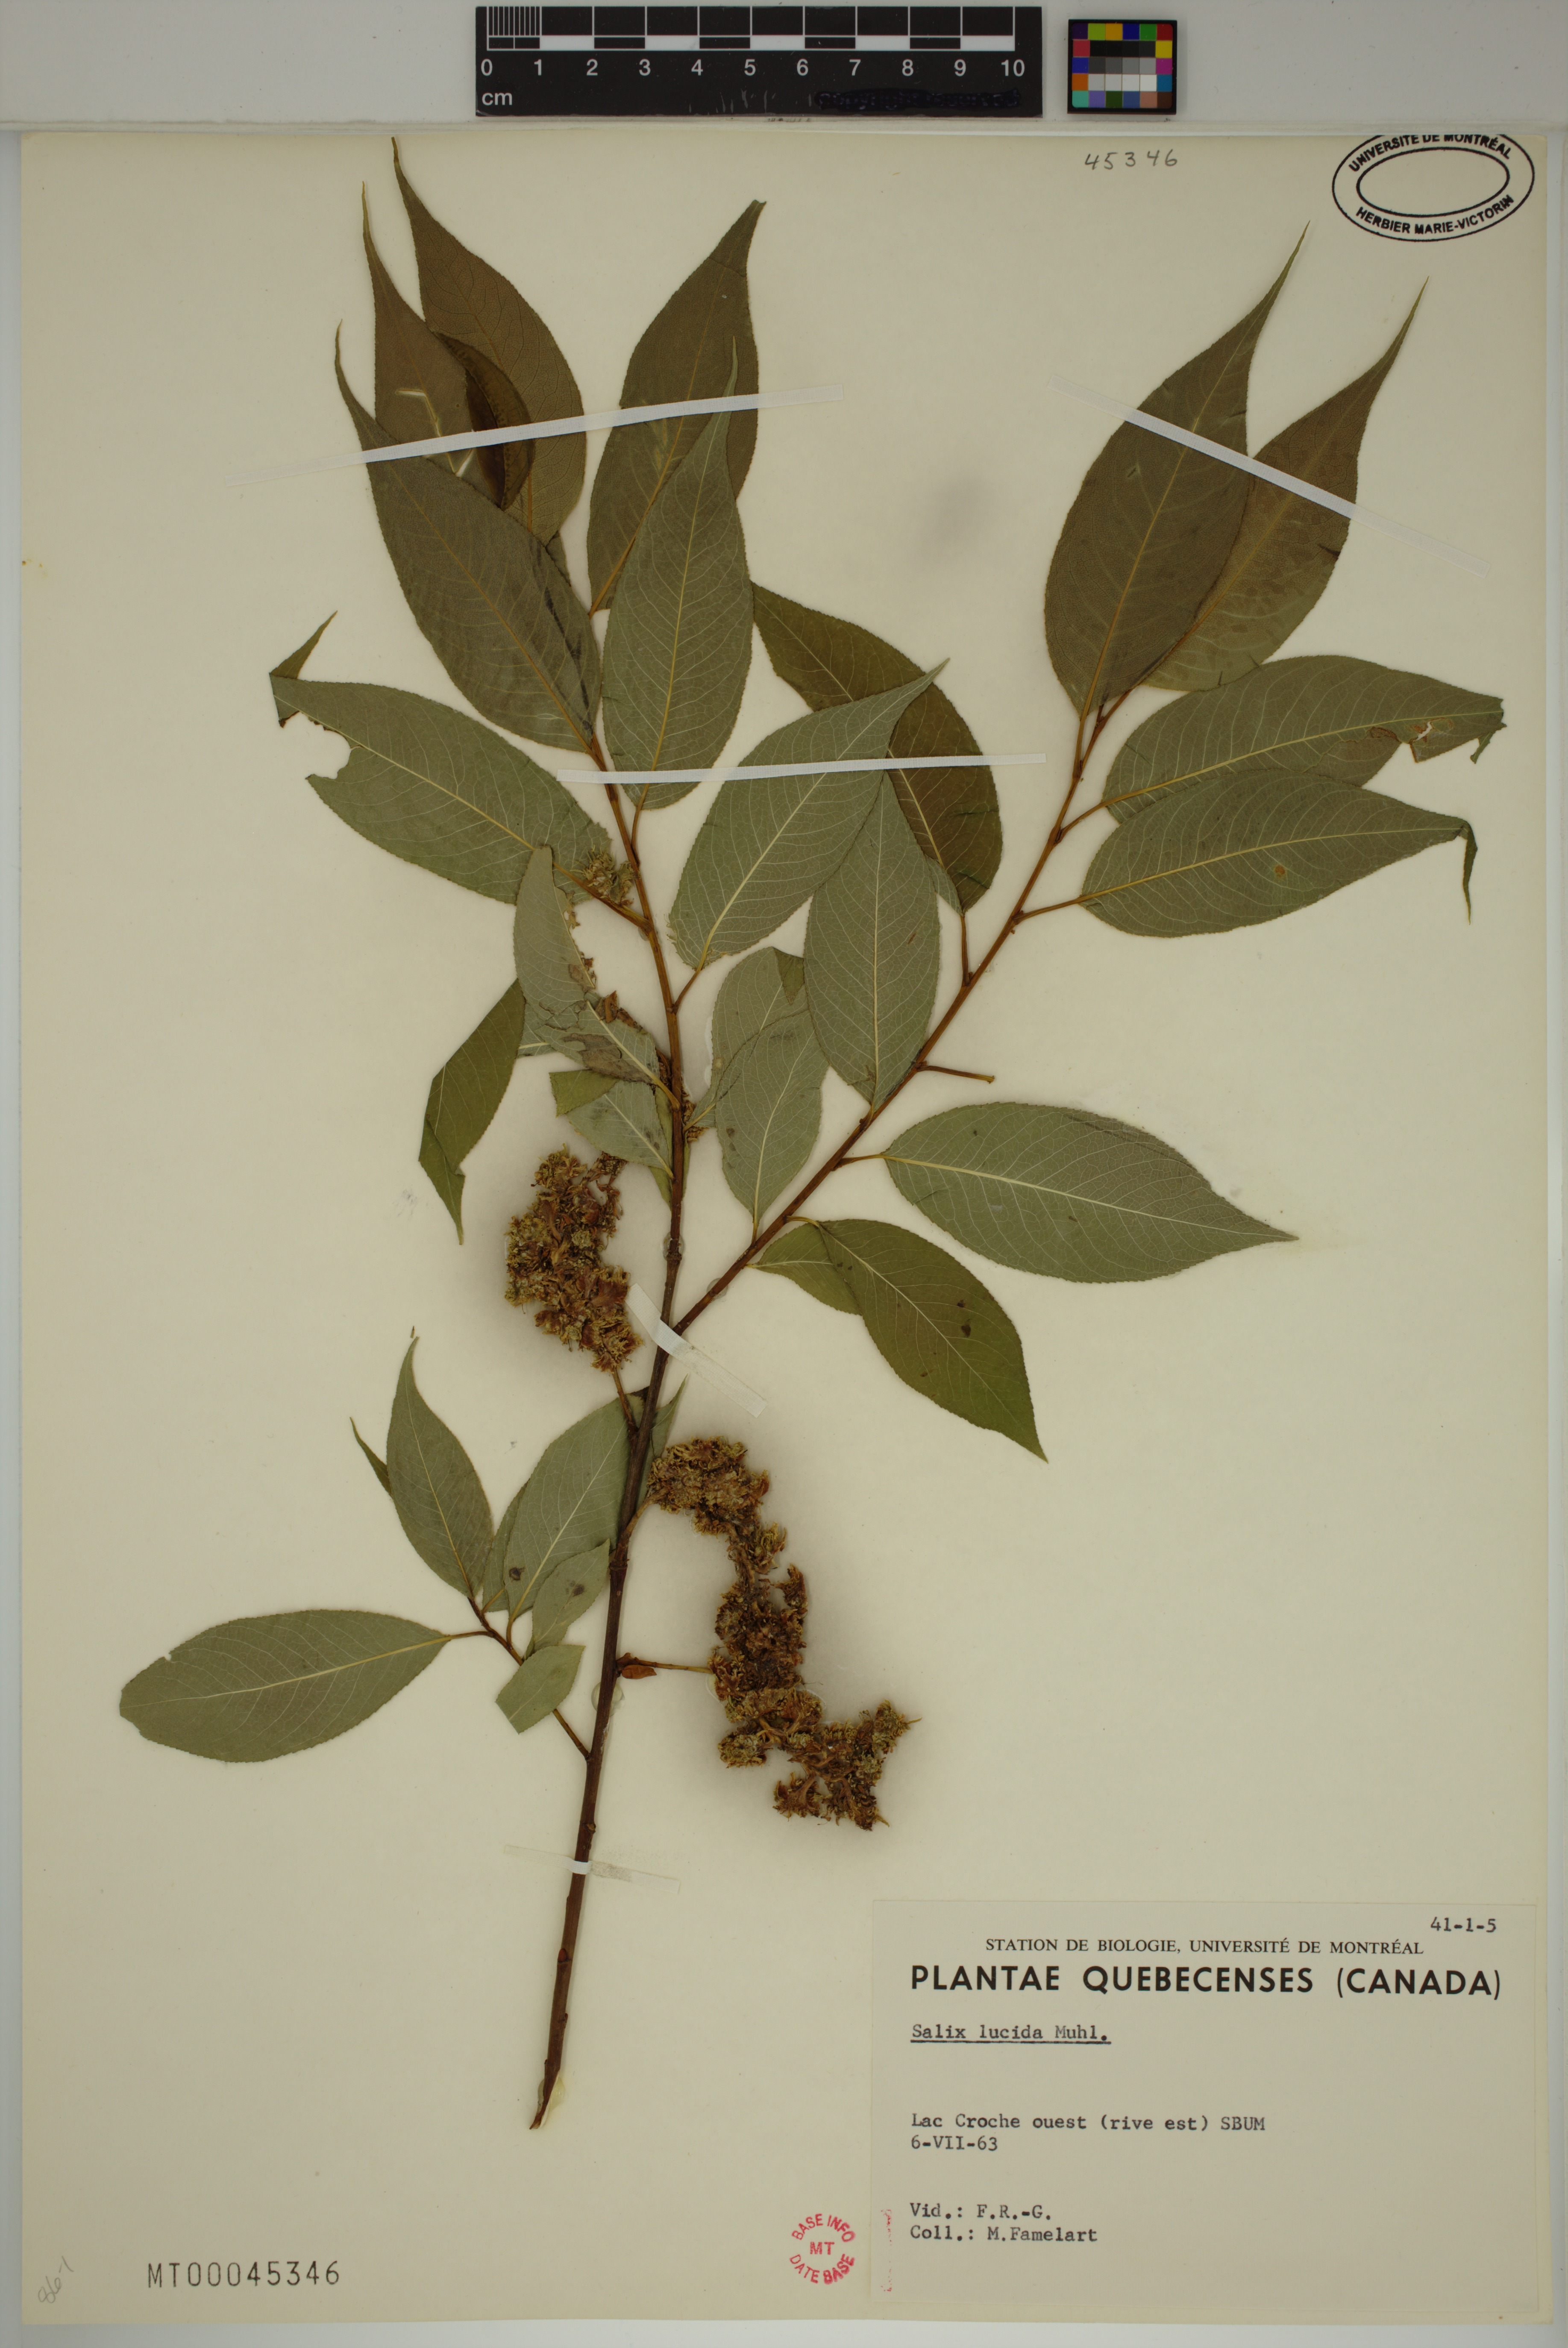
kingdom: Plantae
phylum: Tracheophyta
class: Magnoliopsida
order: Malpighiales
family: Salicaceae
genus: Salix
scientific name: Salix lucida
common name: Shining willow
